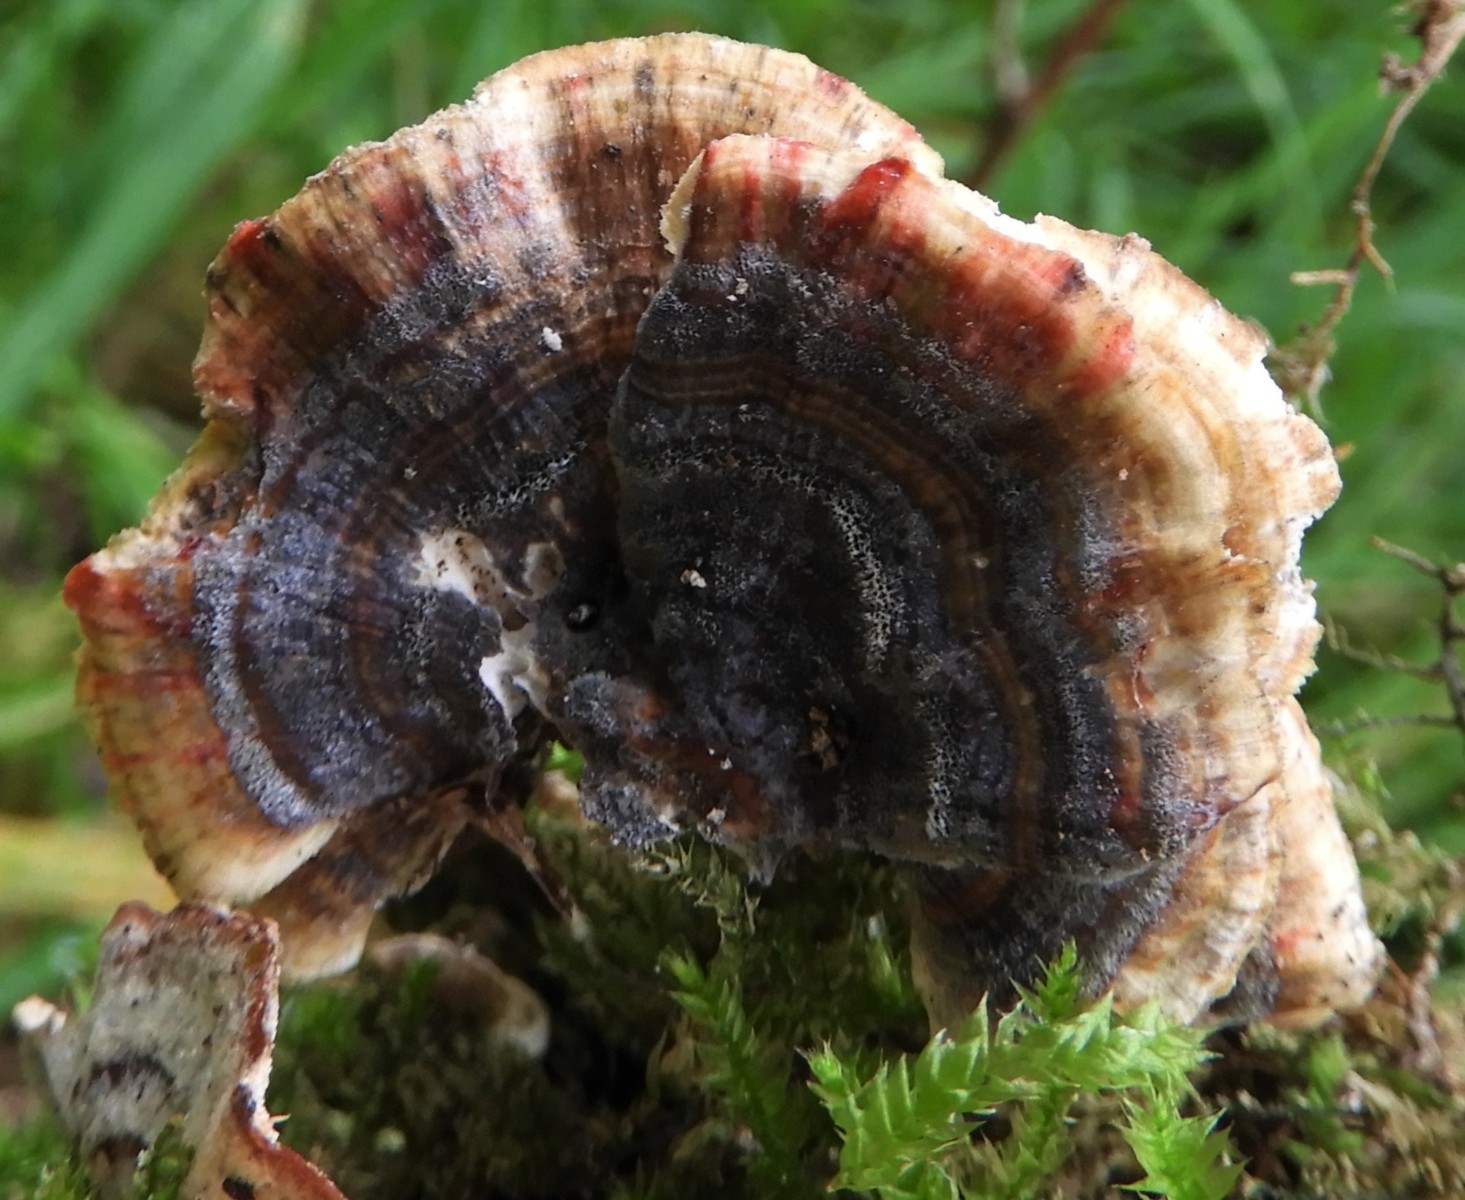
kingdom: Fungi
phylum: Basidiomycota
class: Agaricomycetes
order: Polyporales
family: Polyporaceae
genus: Trametes
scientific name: Trametes versicolor
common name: broget læderporesvamp
